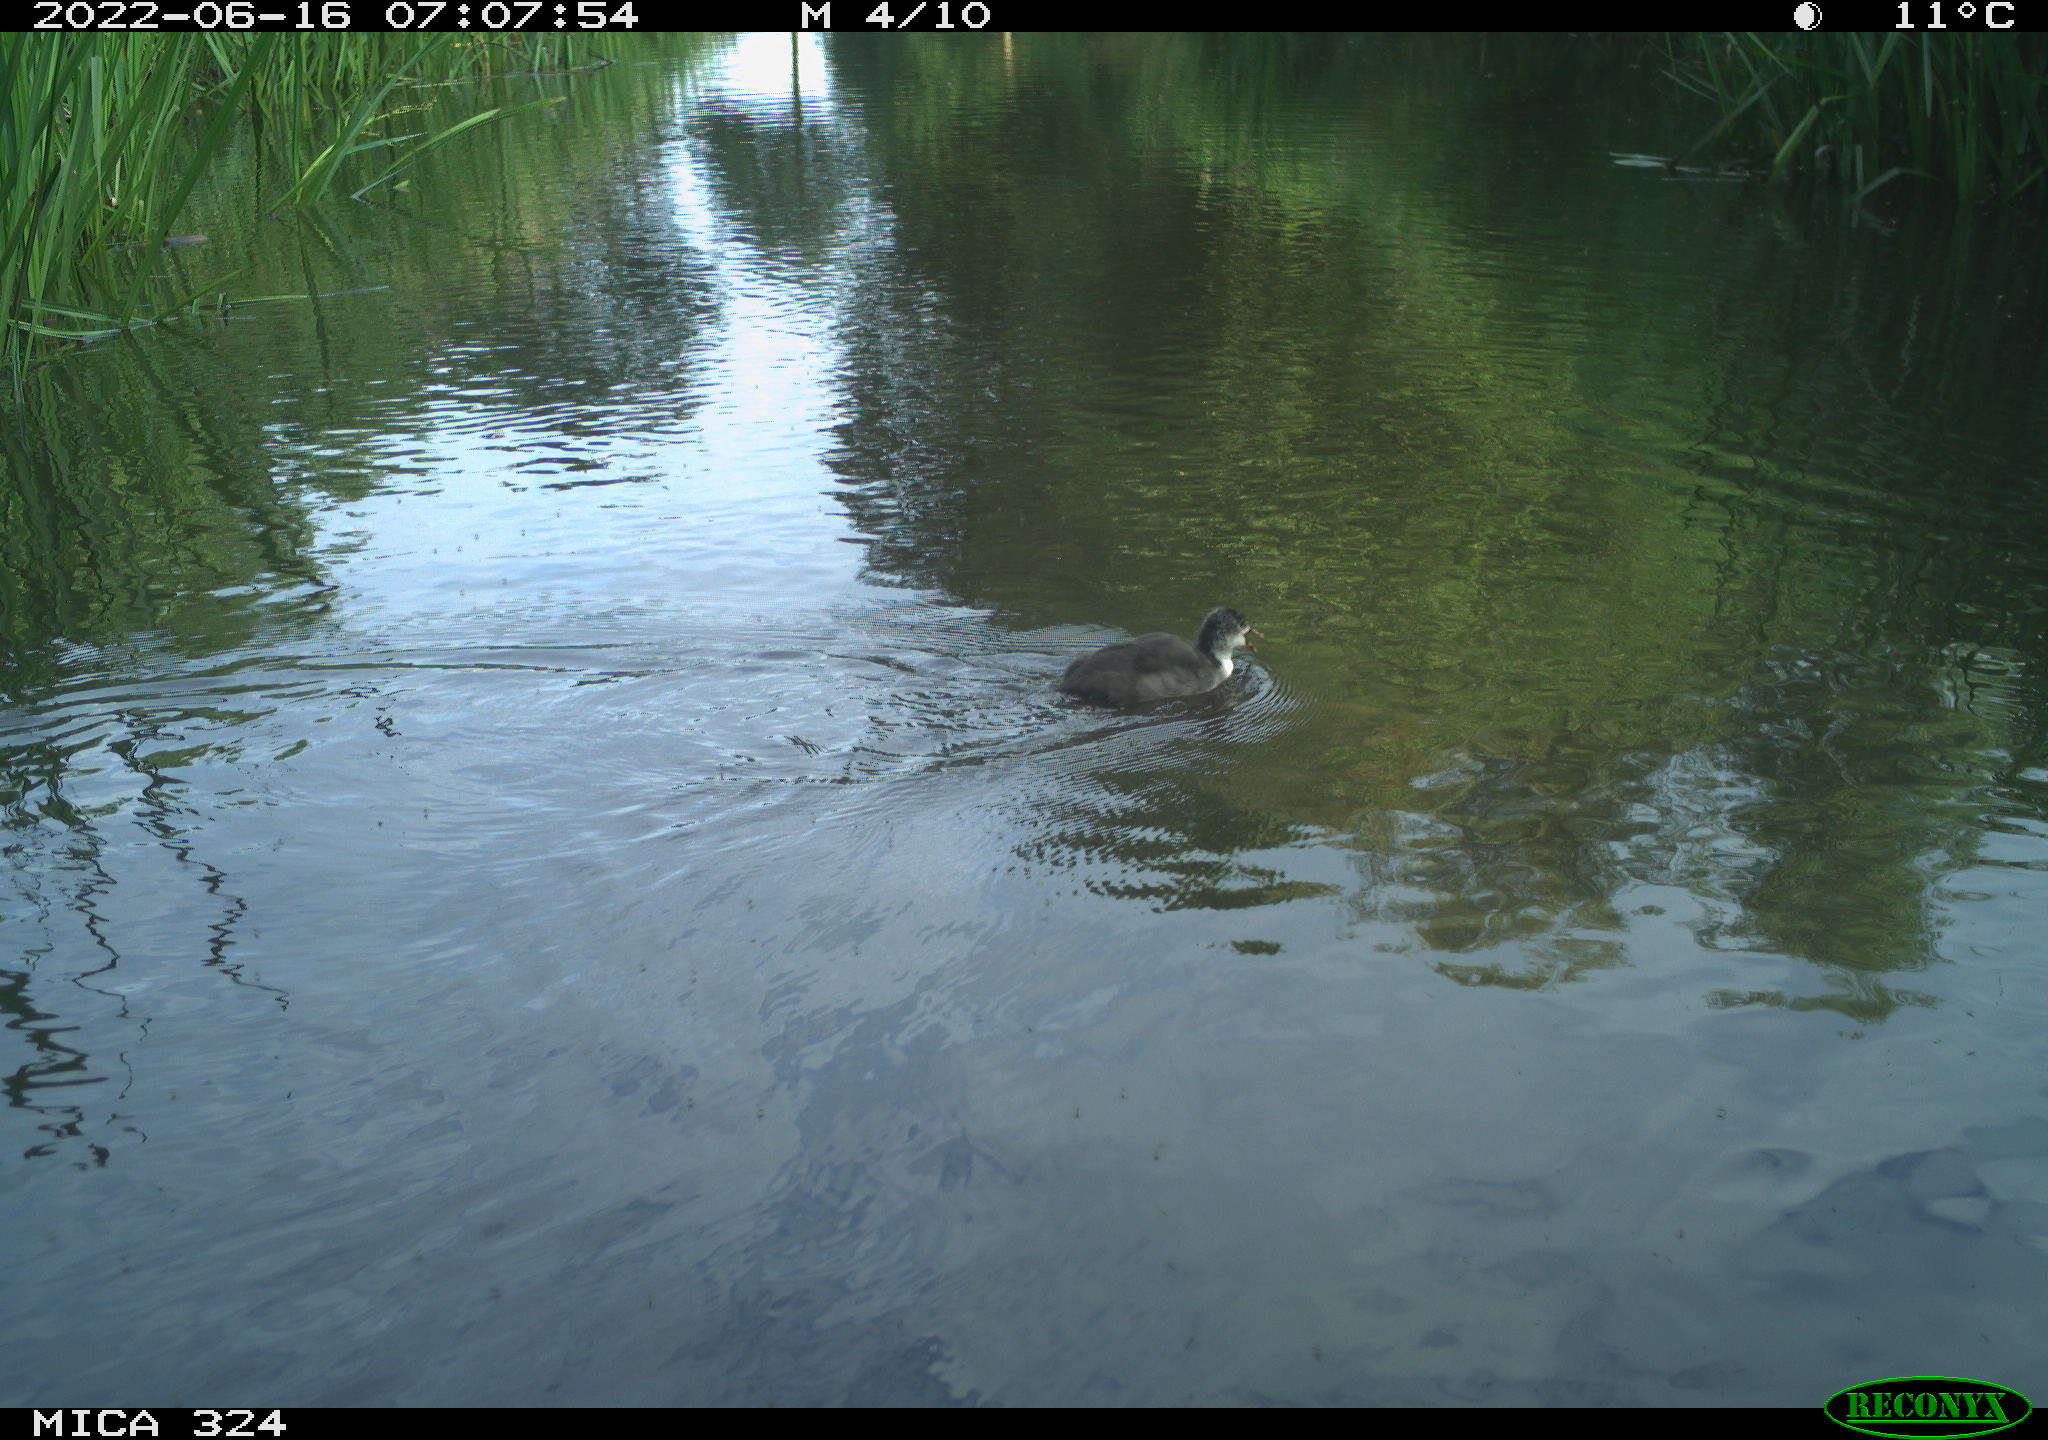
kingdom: Animalia
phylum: Chordata
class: Aves
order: Gruiformes
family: Rallidae
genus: Fulica
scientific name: Fulica atra
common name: Eurasian coot
